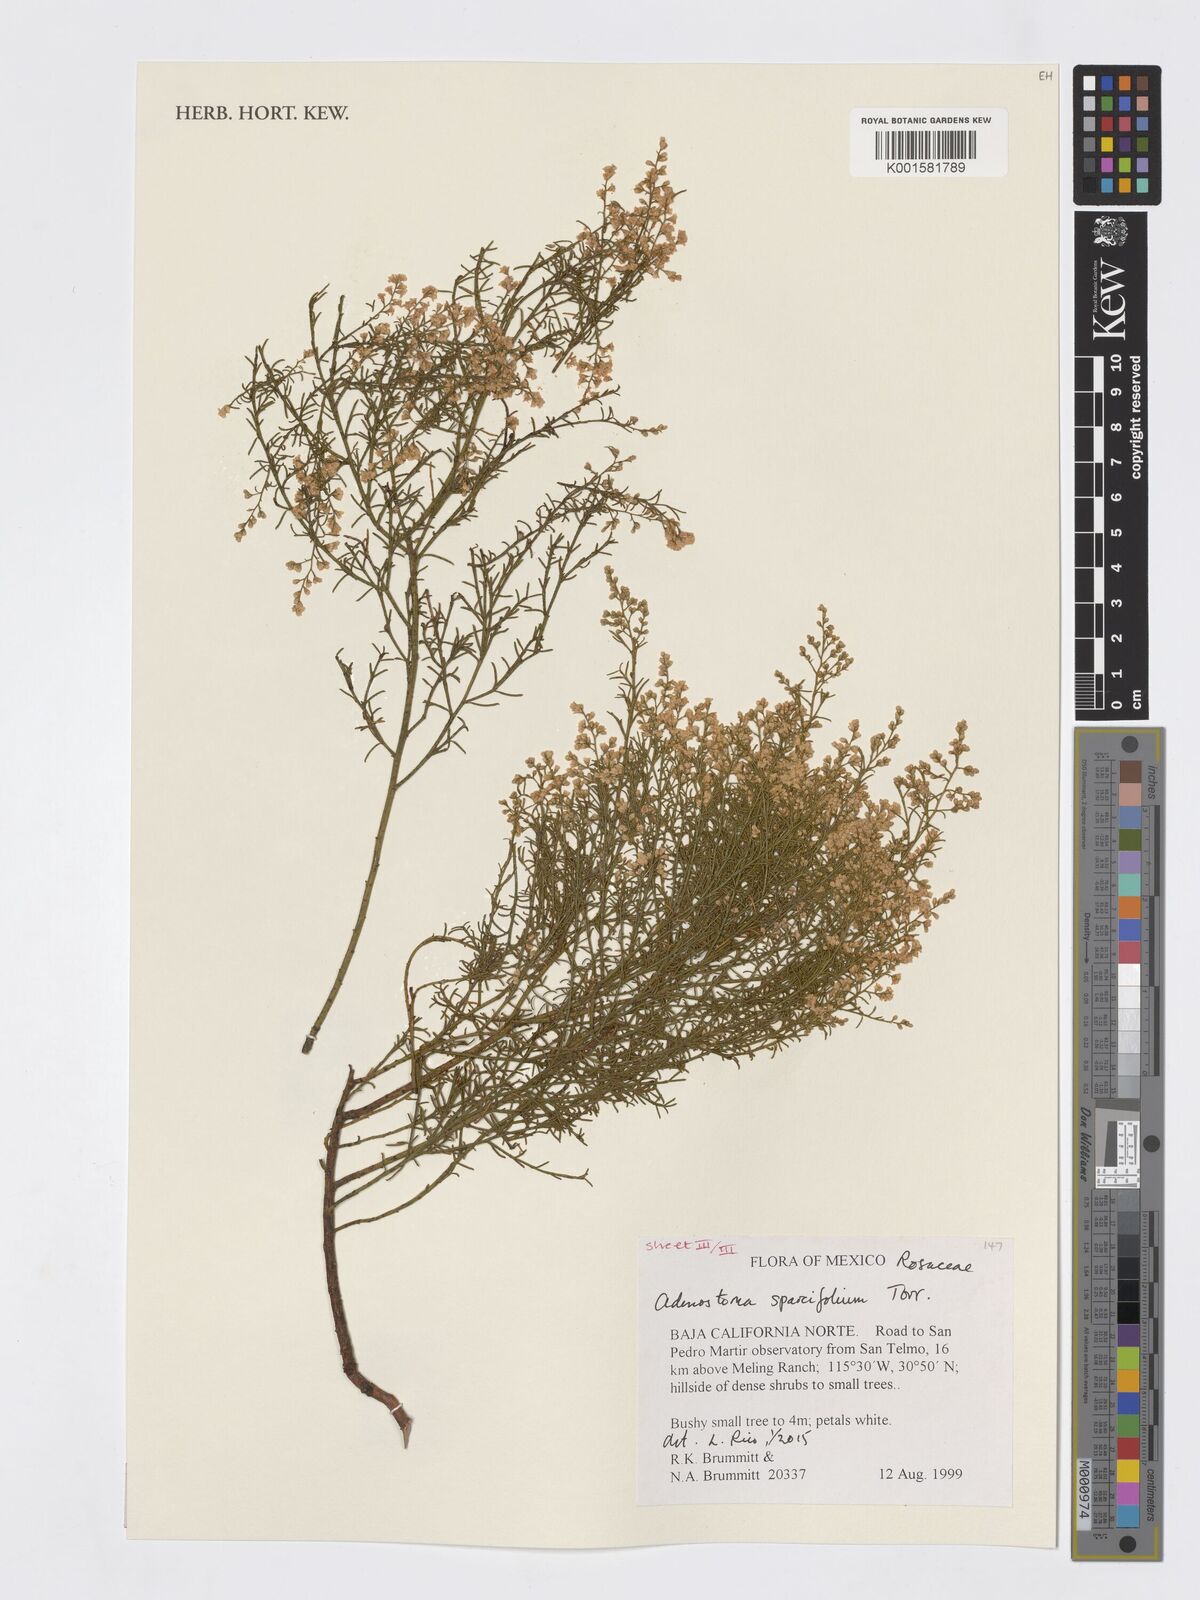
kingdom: Plantae
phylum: Tracheophyta
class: Magnoliopsida
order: Rosales
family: Rosaceae
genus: Adenostoma
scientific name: Adenostoma sparsifolium
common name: Red shank
